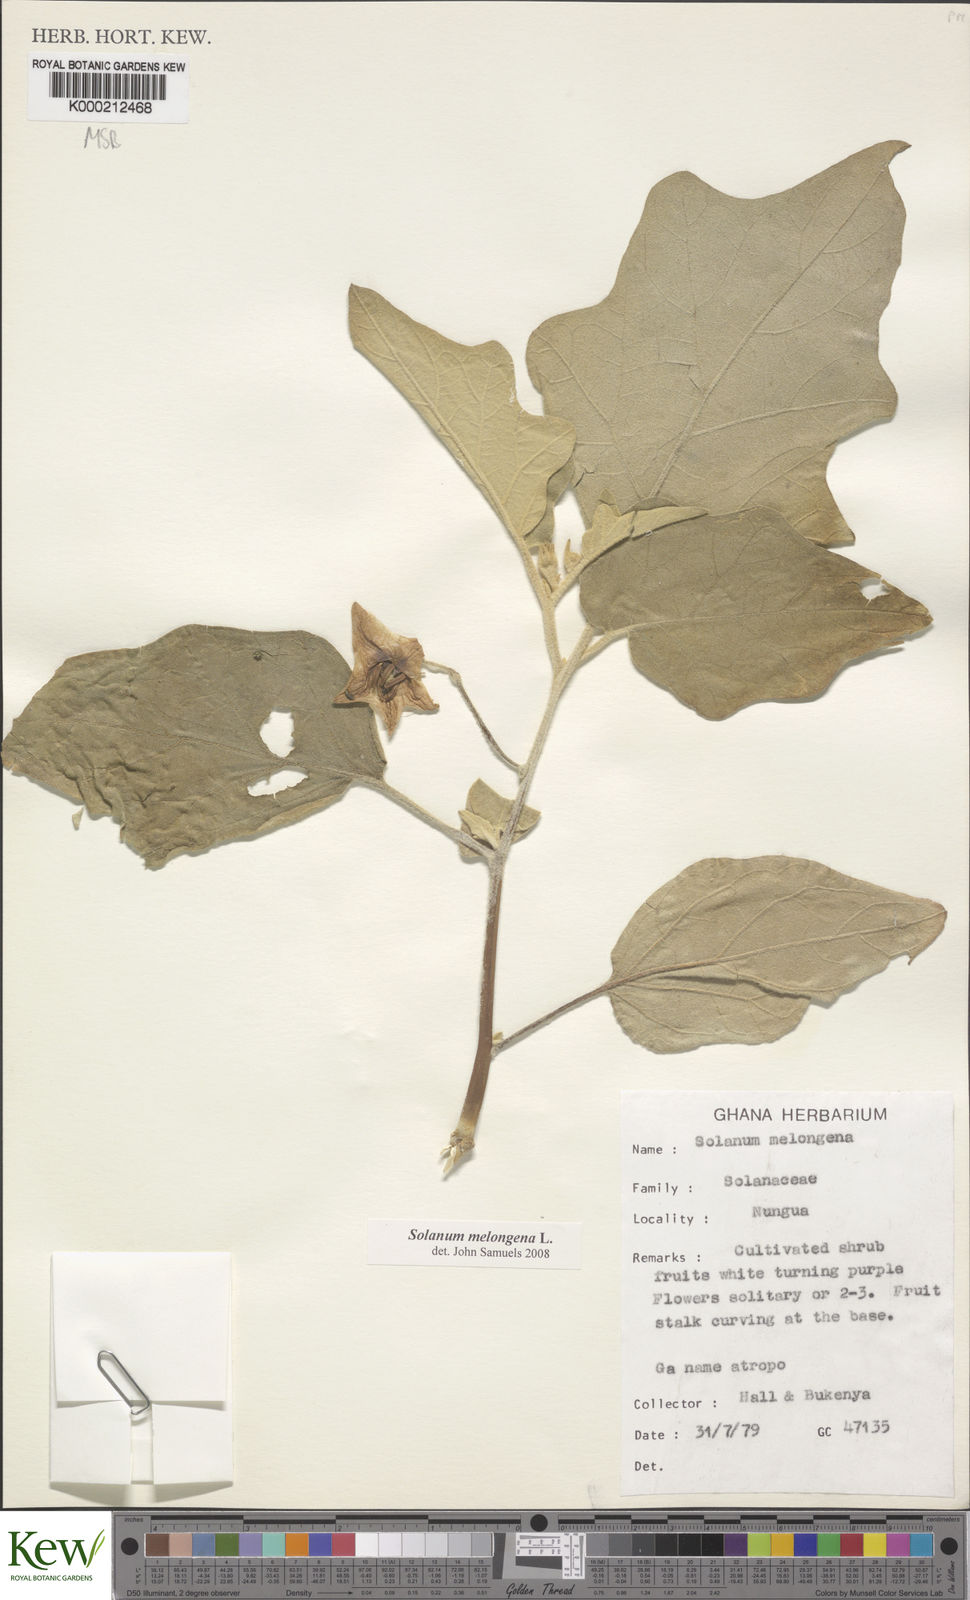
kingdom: Plantae
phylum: Tracheophyta
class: Magnoliopsida
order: Solanales
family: Solanaceae
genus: Solanum
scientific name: Solanum melongena
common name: Eggplant
